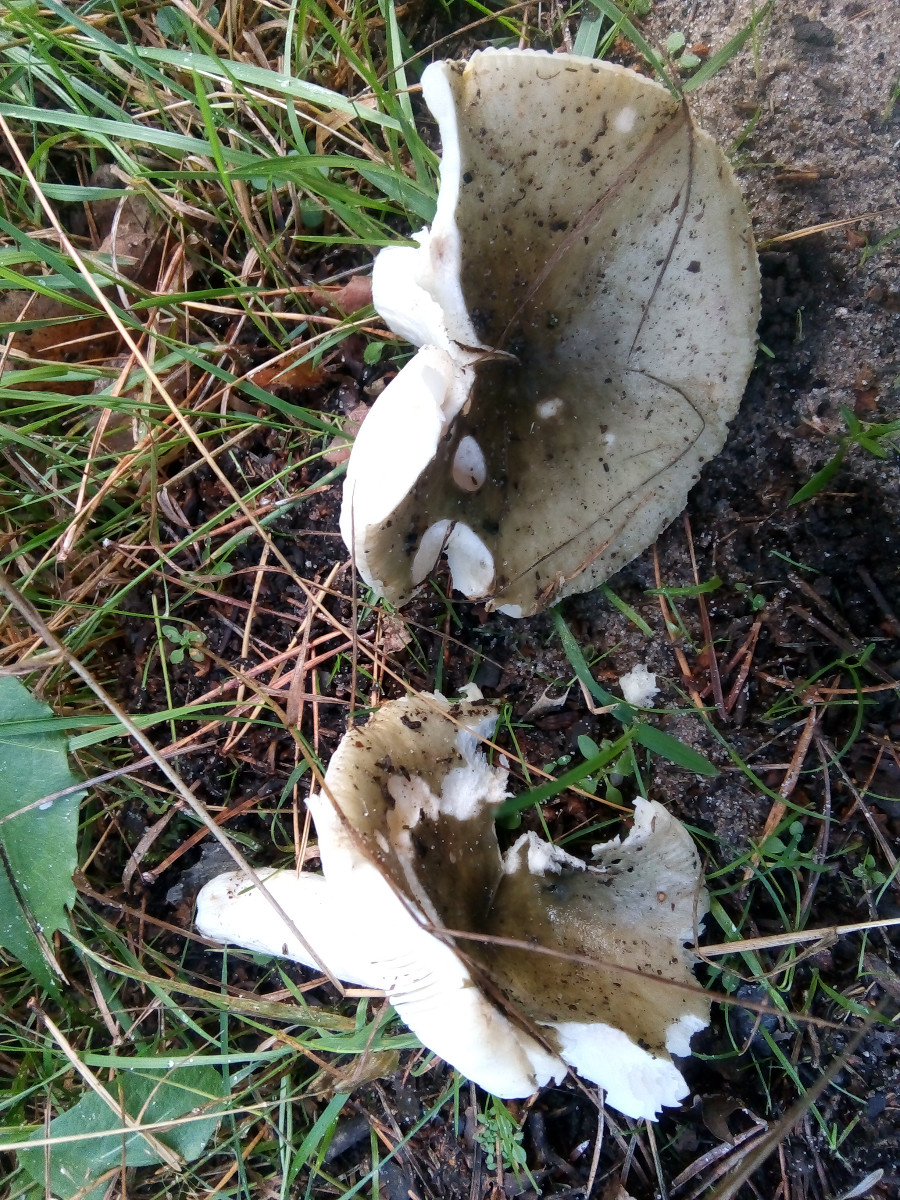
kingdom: Fungi
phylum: Basidiomycota
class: Agaricomycetes
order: Russulales
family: Russulaceae
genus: Russula
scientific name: Russula aeruginea
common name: græsgrøn skørhat
